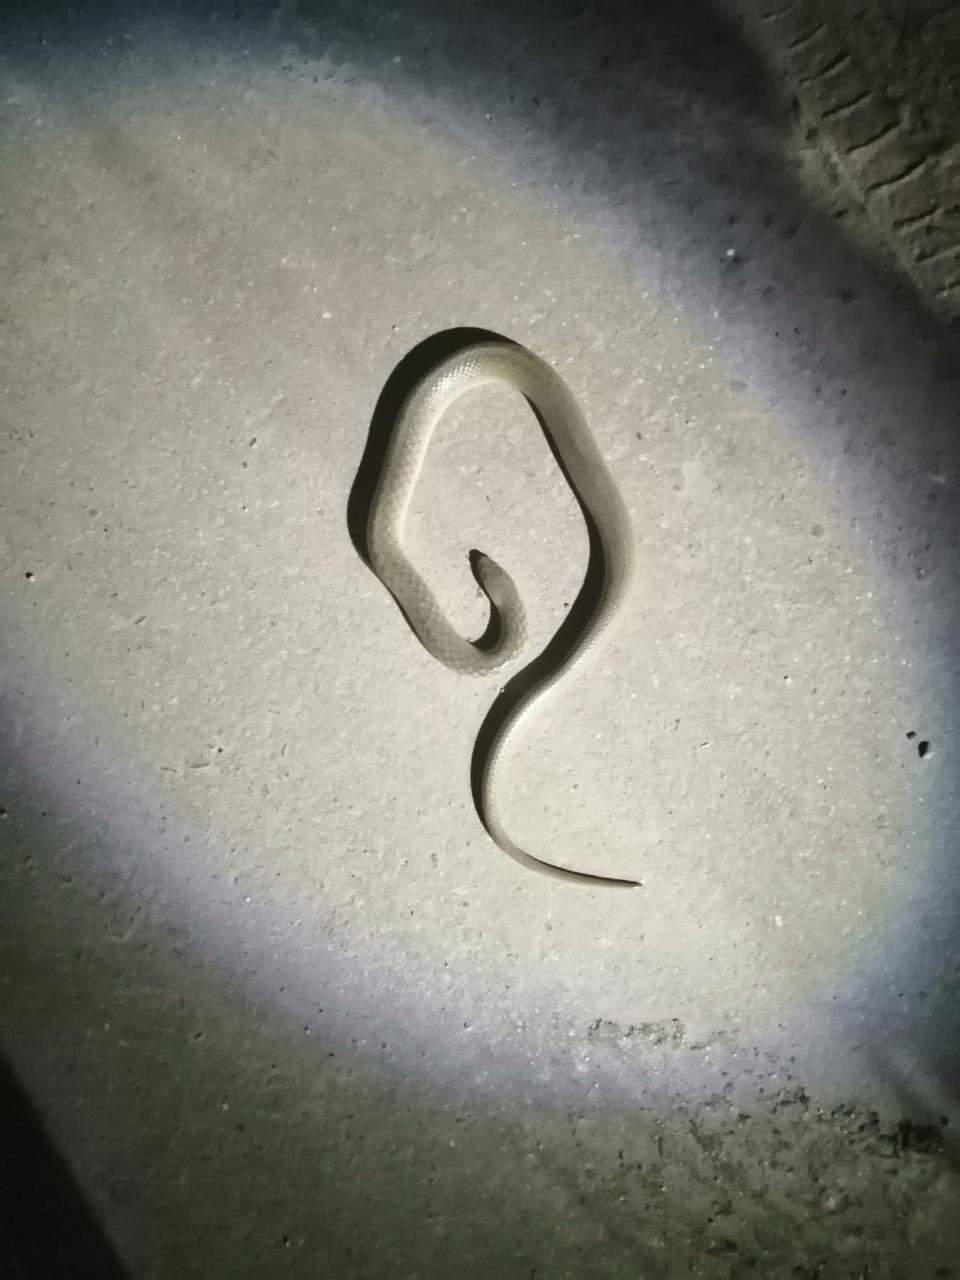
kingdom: Animalia
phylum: Chordata
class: Squamata
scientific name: Squamata
